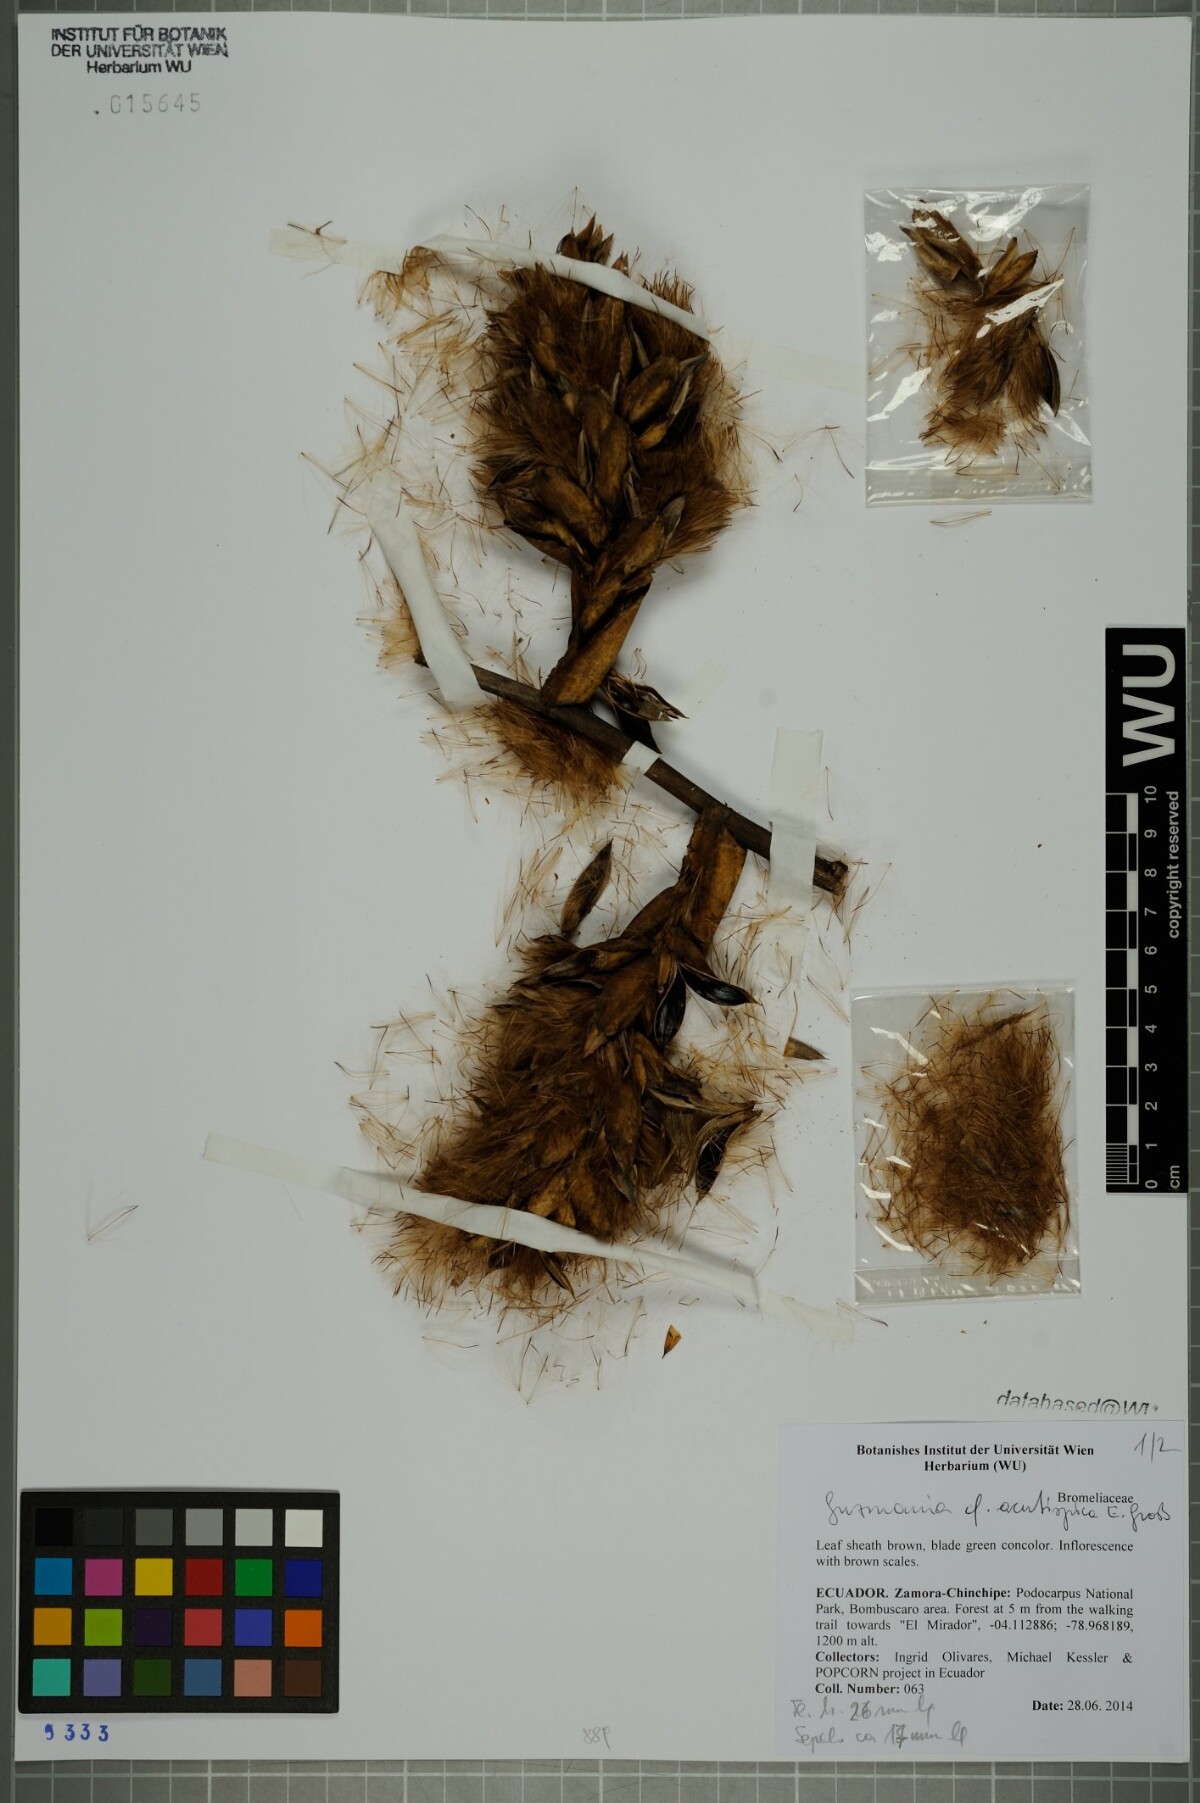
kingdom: Plantae
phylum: Tracheophyta
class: Liliopsida
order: Poales
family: Bromeliaceae
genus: Guzmania
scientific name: Guzmania acutispica
